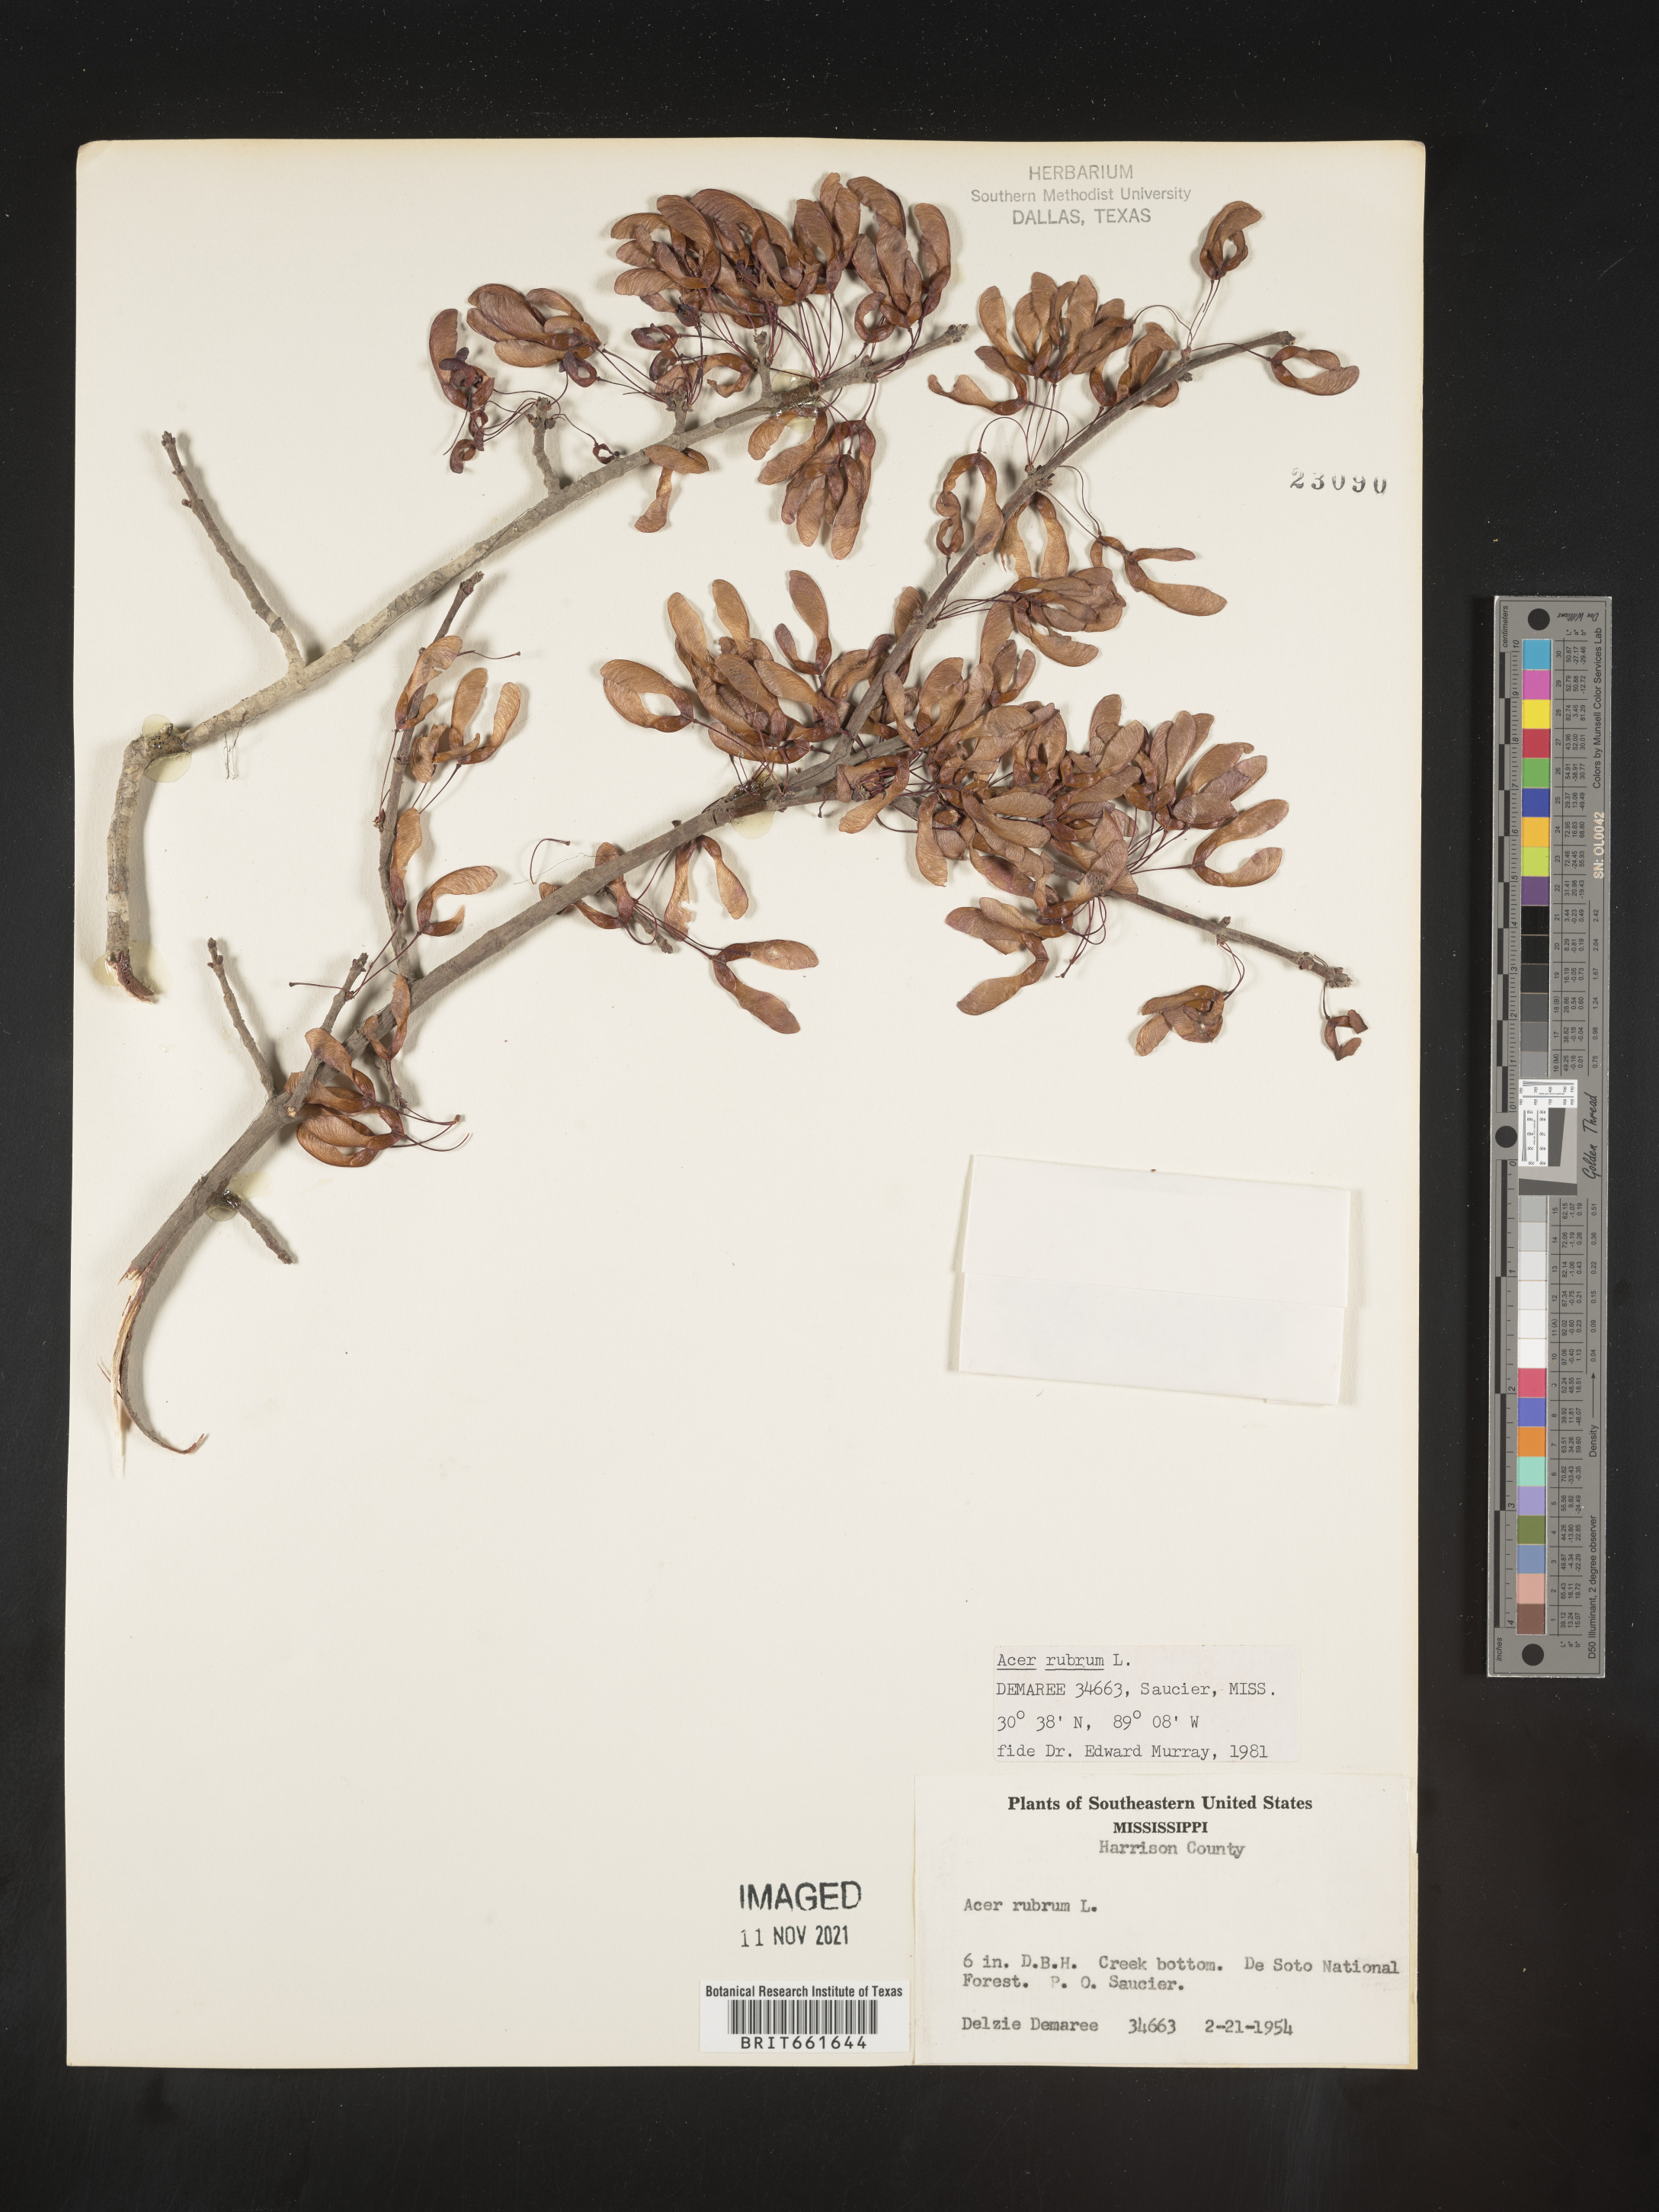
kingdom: Plantae
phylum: Tracheophyta
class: Magnoliopsida
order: Sapindales
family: Sapindaceae
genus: Acer
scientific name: Acer rubrum
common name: Red maple
